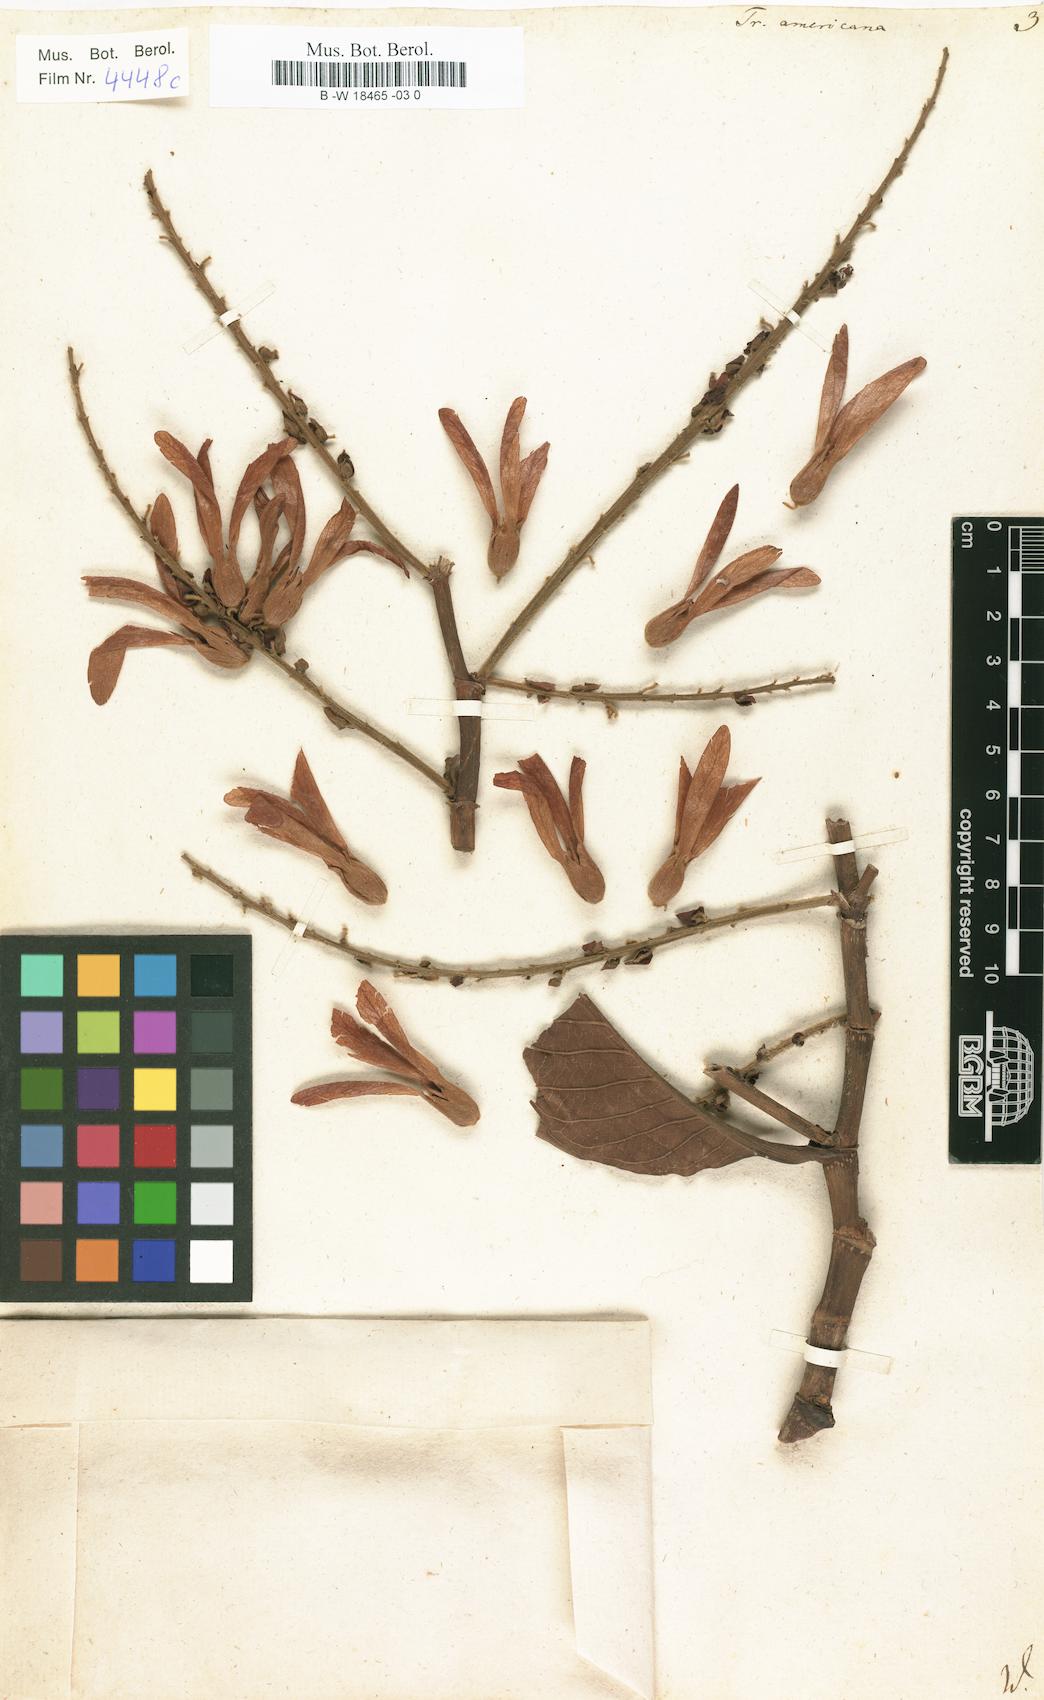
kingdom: Plantae
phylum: Tracheophyta
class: Magnoliopsida
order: Caryophyllales
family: Polygonaceae
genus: Triplaris
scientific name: Triplaris americana
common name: Ant-tree
